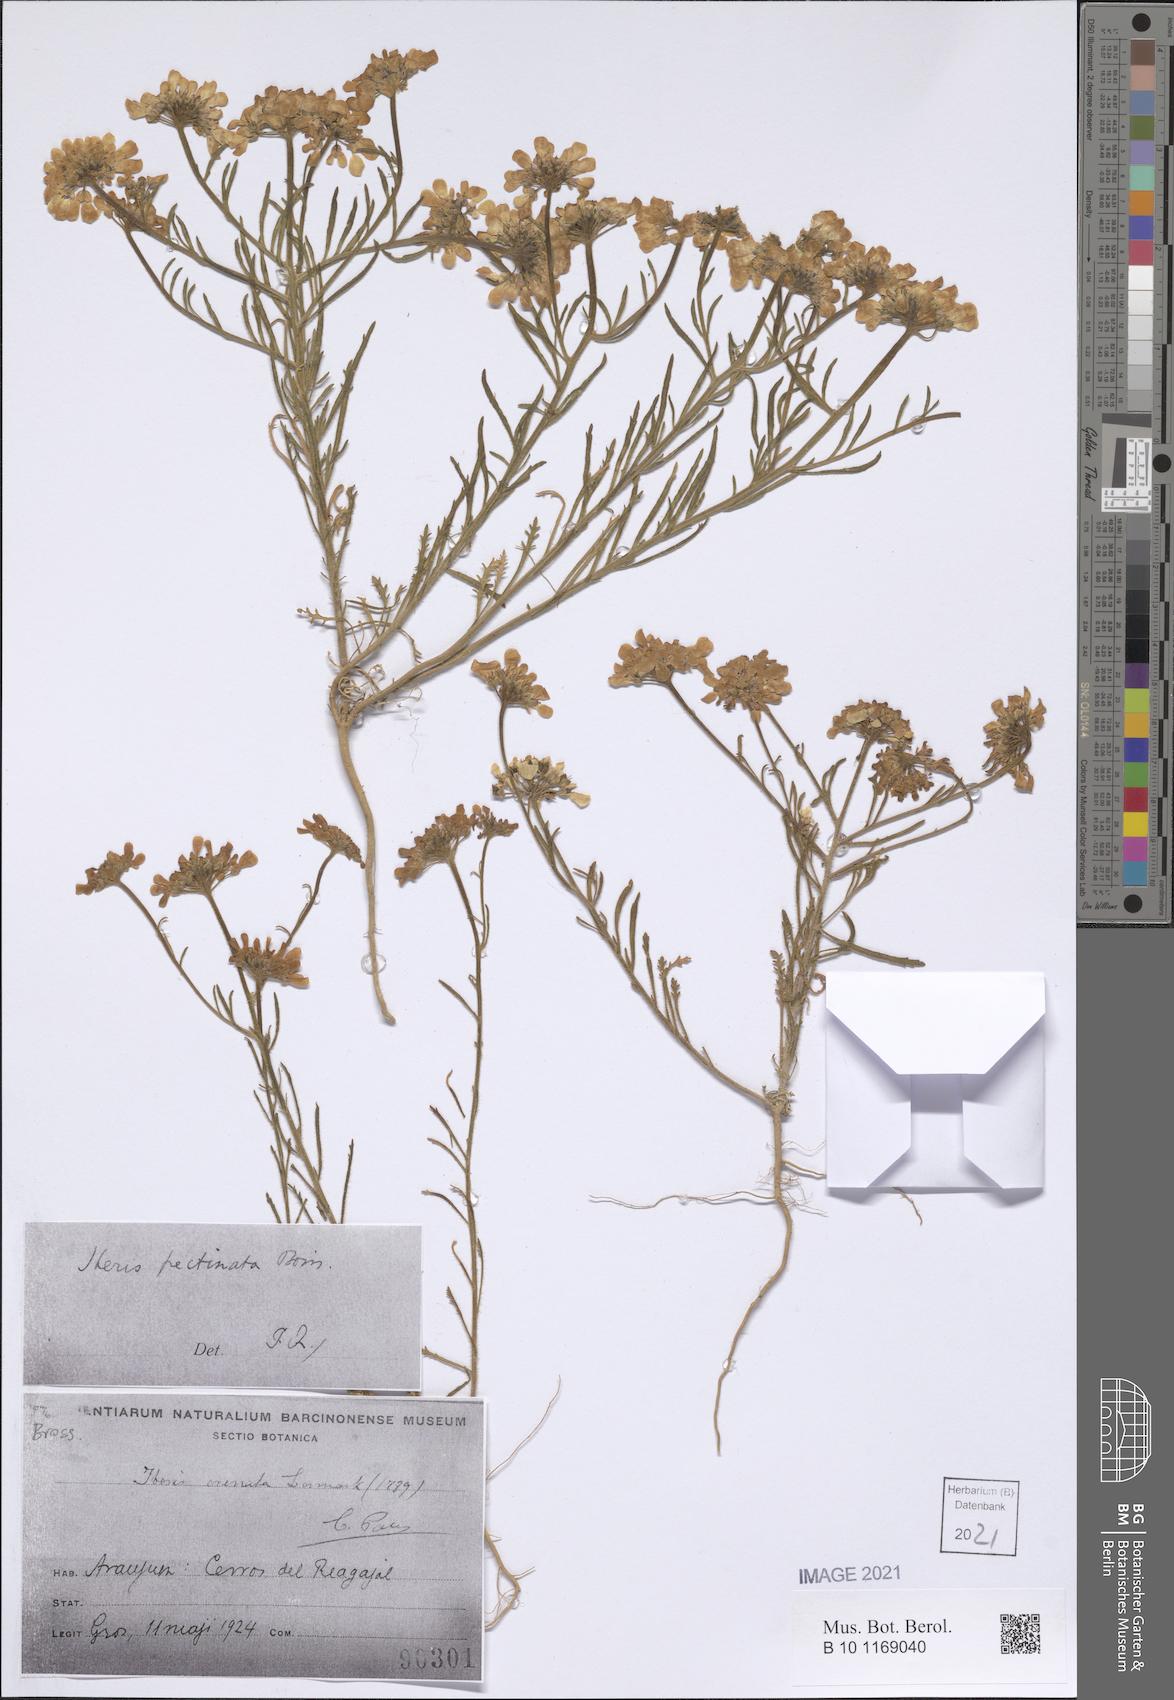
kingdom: Plantae
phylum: Tracheophyta
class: Magnoliopsida
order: Brassicales
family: Brassicaceae
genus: Iberis
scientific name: Iberis pectinata
